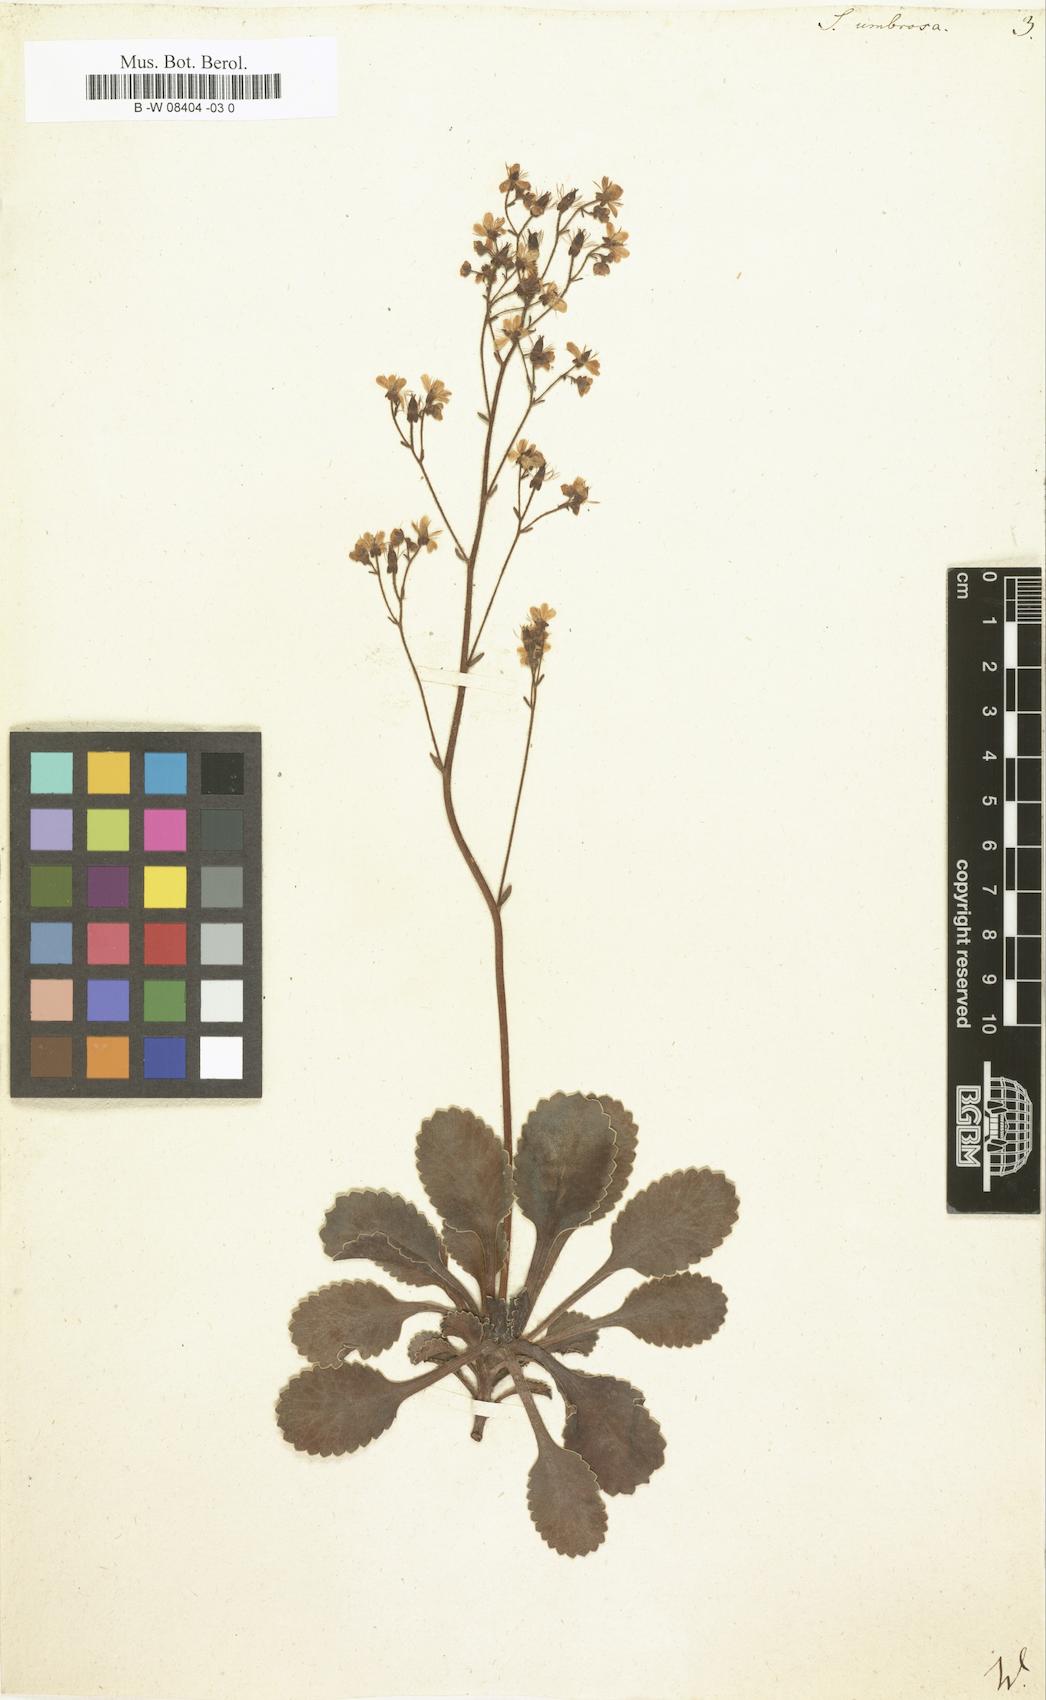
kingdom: Plantae
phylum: Tracheophyta
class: Magnoliopsida
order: Saxifragales
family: Saxifragaceae
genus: Saxifraga
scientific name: Saxifraga umbrosa
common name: Pyrenean saxifrage
